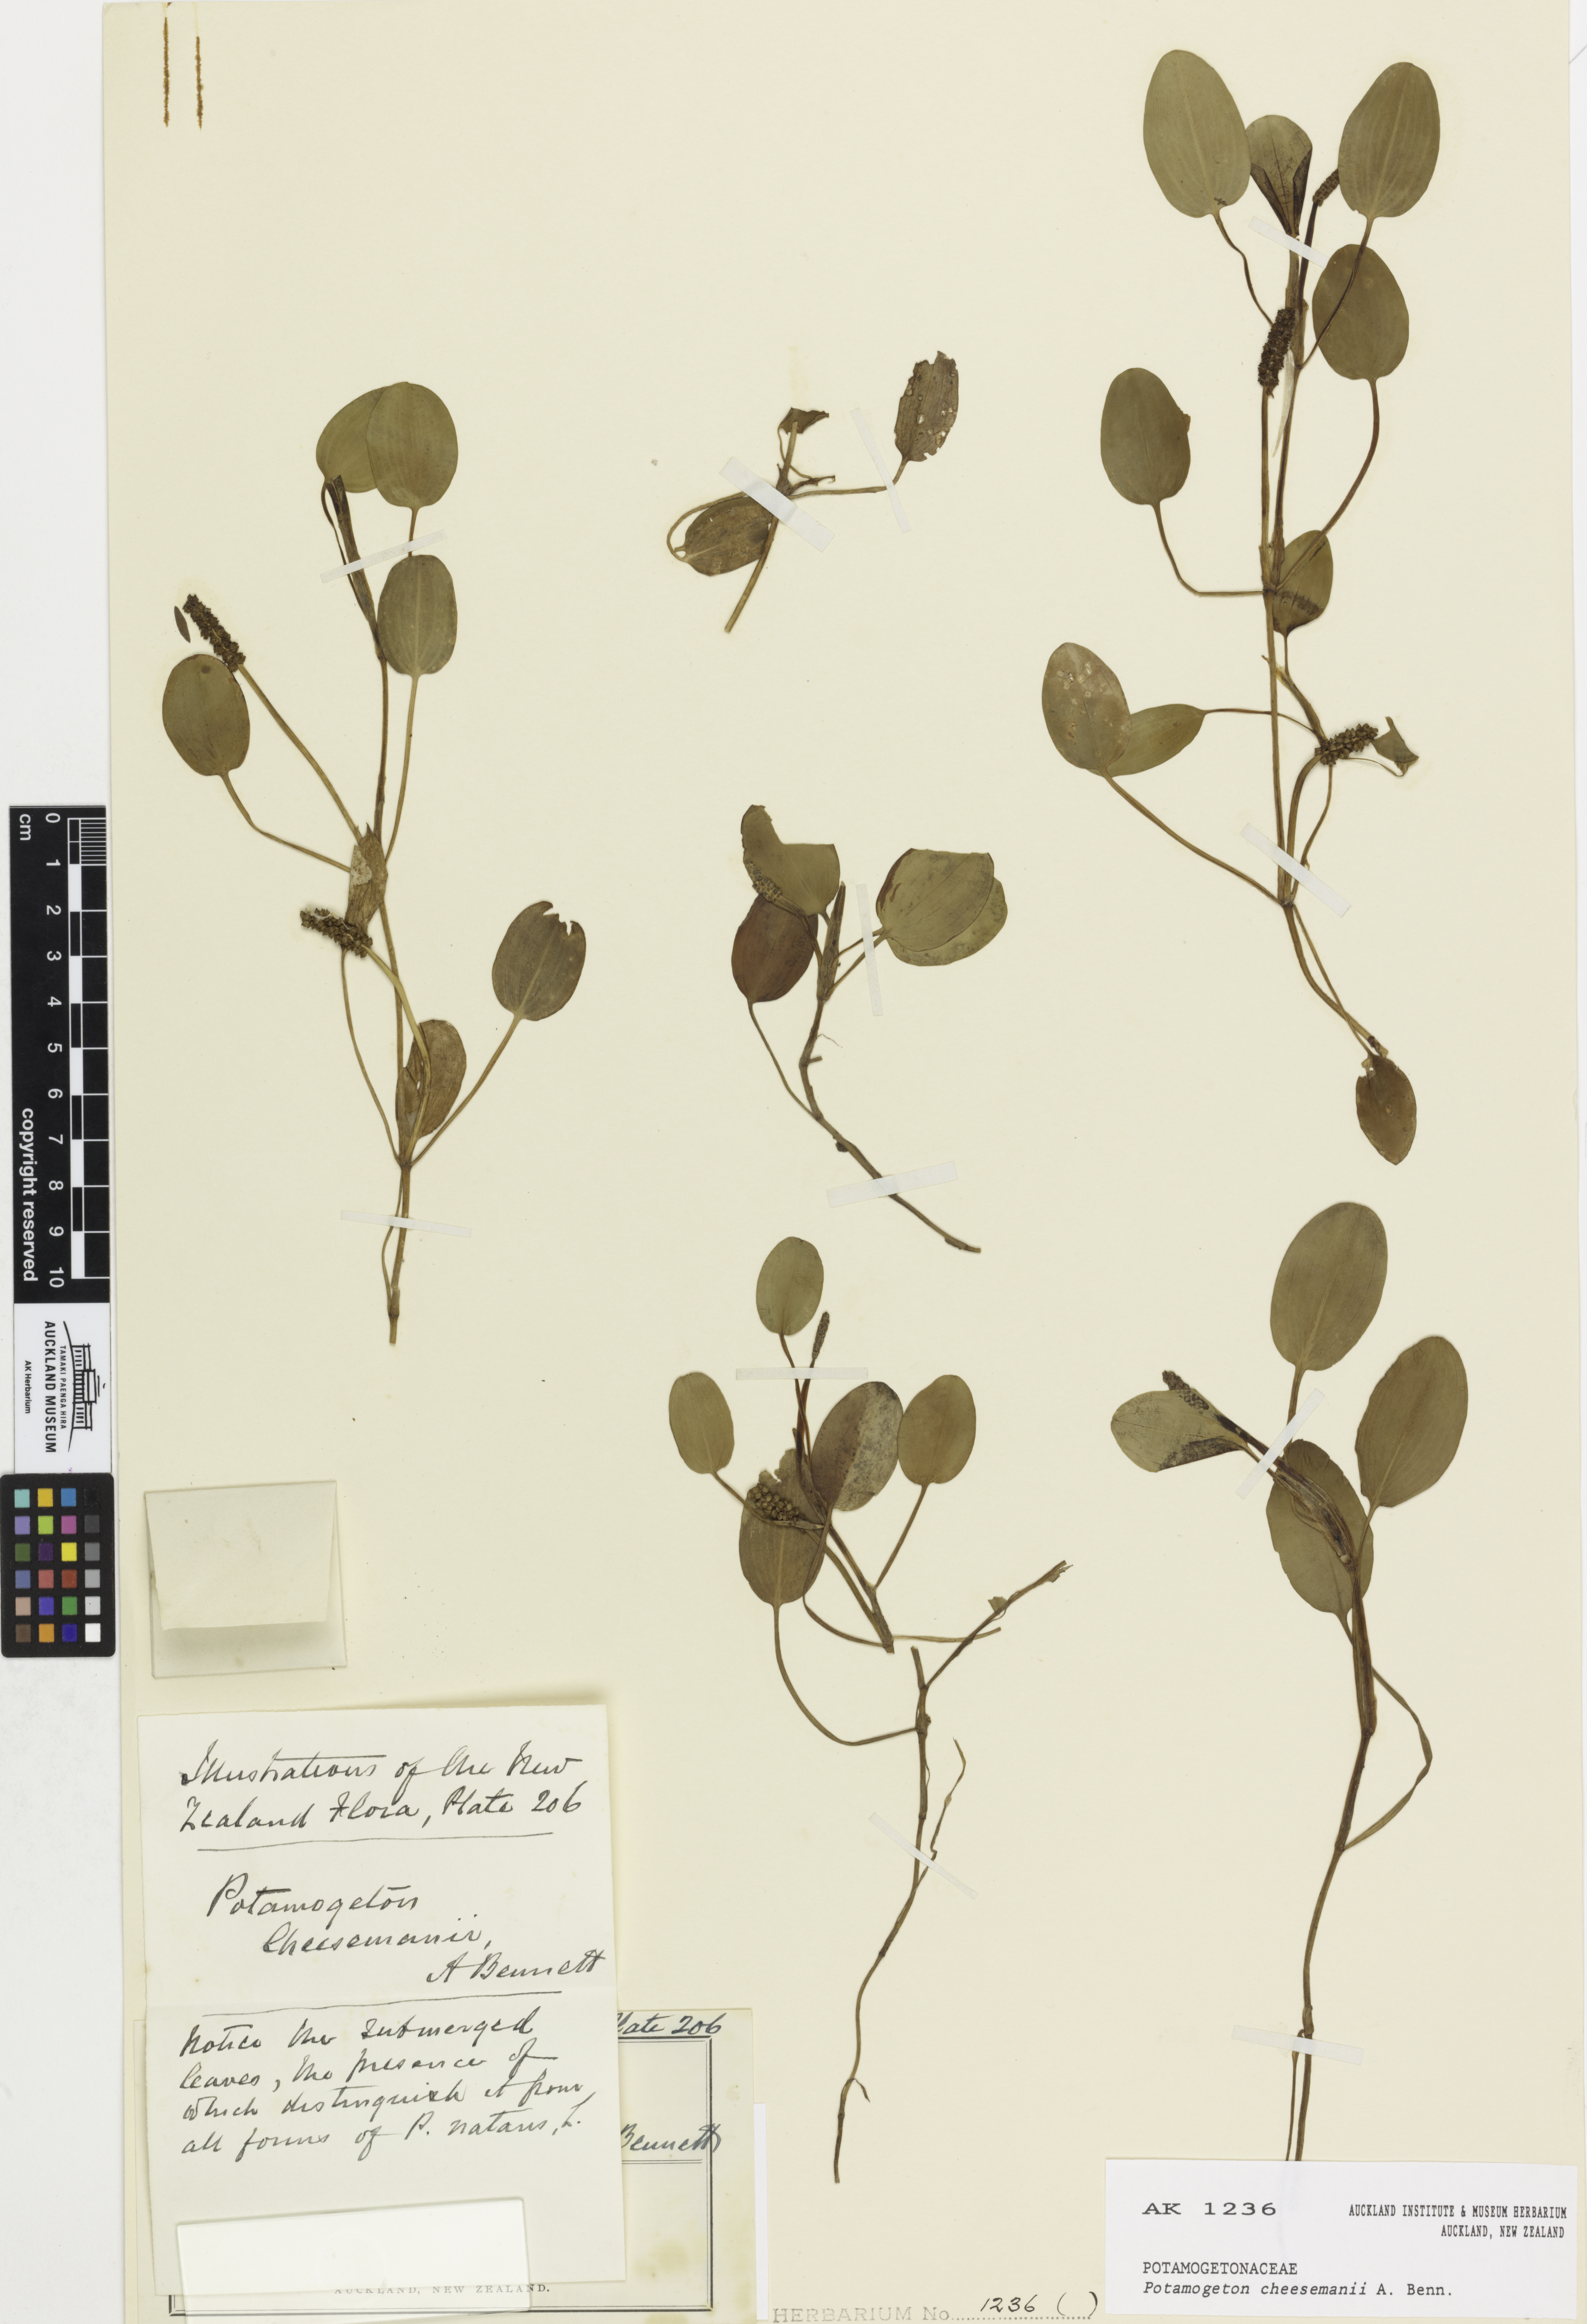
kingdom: Plantae
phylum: Tracheophyta
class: Liliopsida
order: Alismatales
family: Potamogetonaceae
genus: Potamogeton
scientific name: Potamogeton cheesemanii
